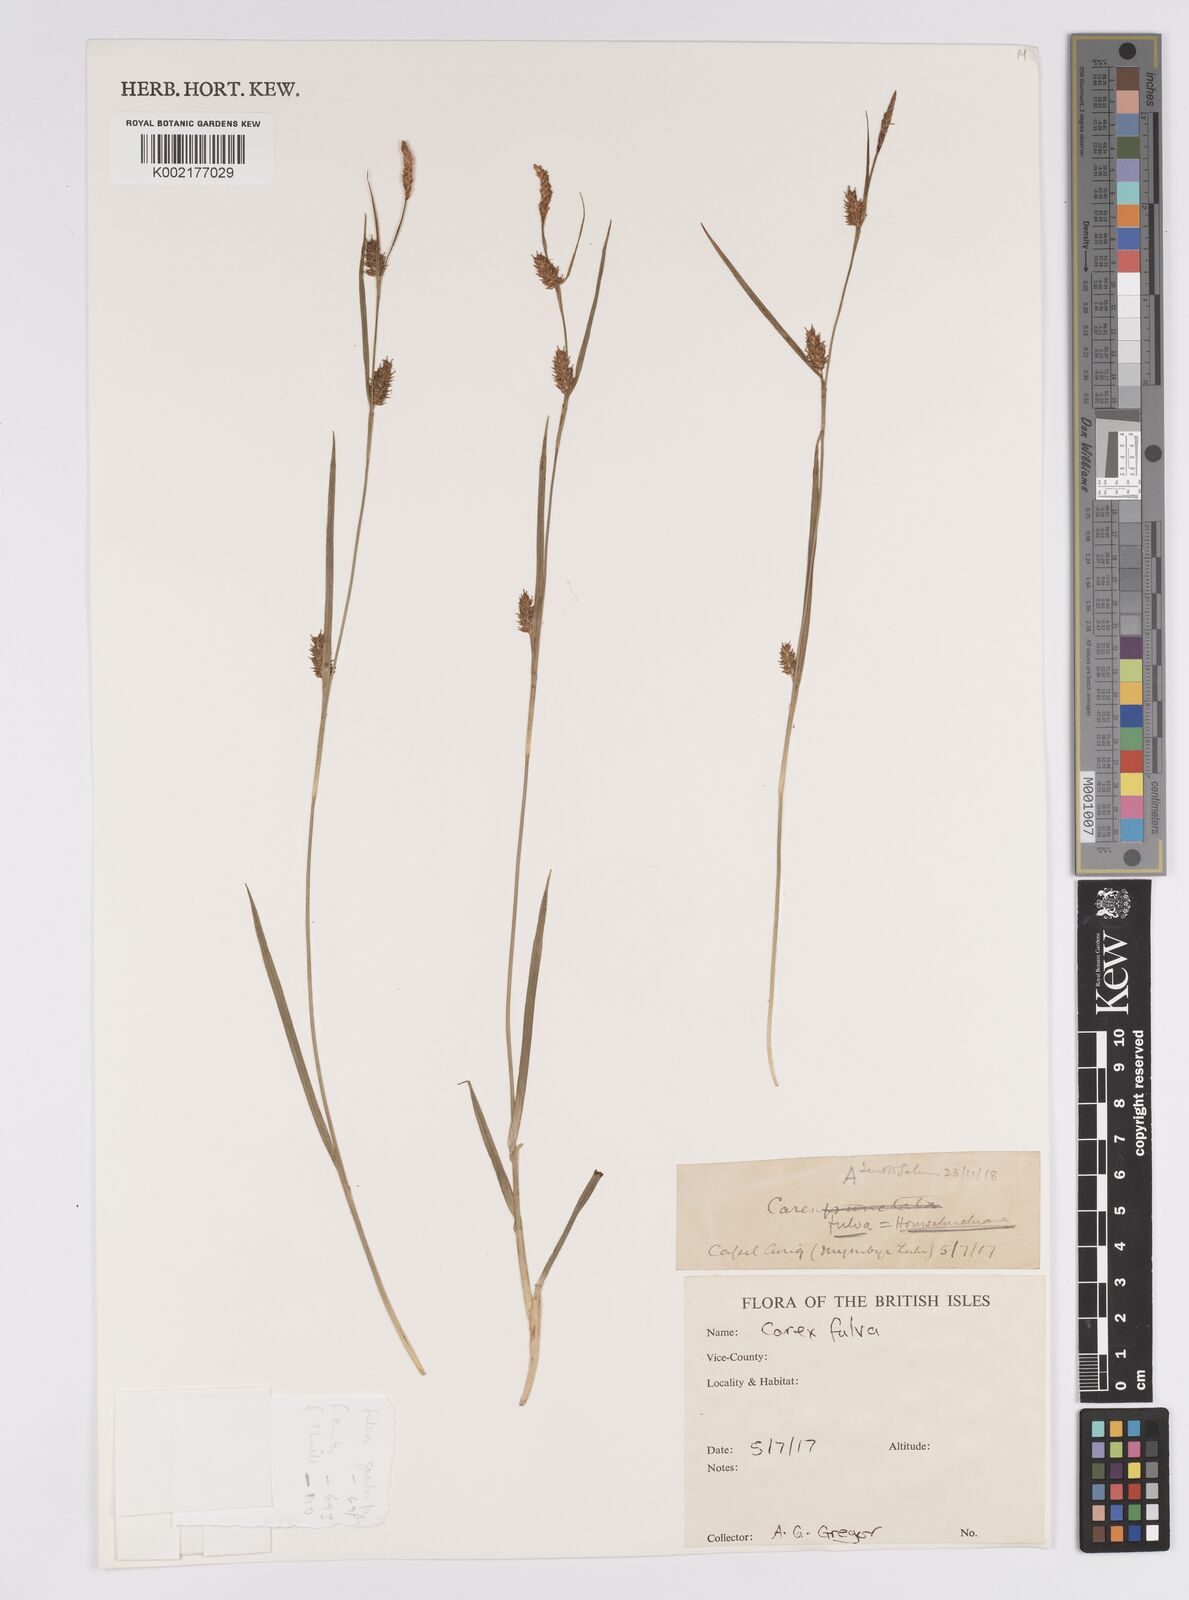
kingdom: Plantae
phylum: Tracheophyta
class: Liliopsida
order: Poales
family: Cyperaceae
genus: Carex
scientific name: Carex hostiana
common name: Tawny sedge
